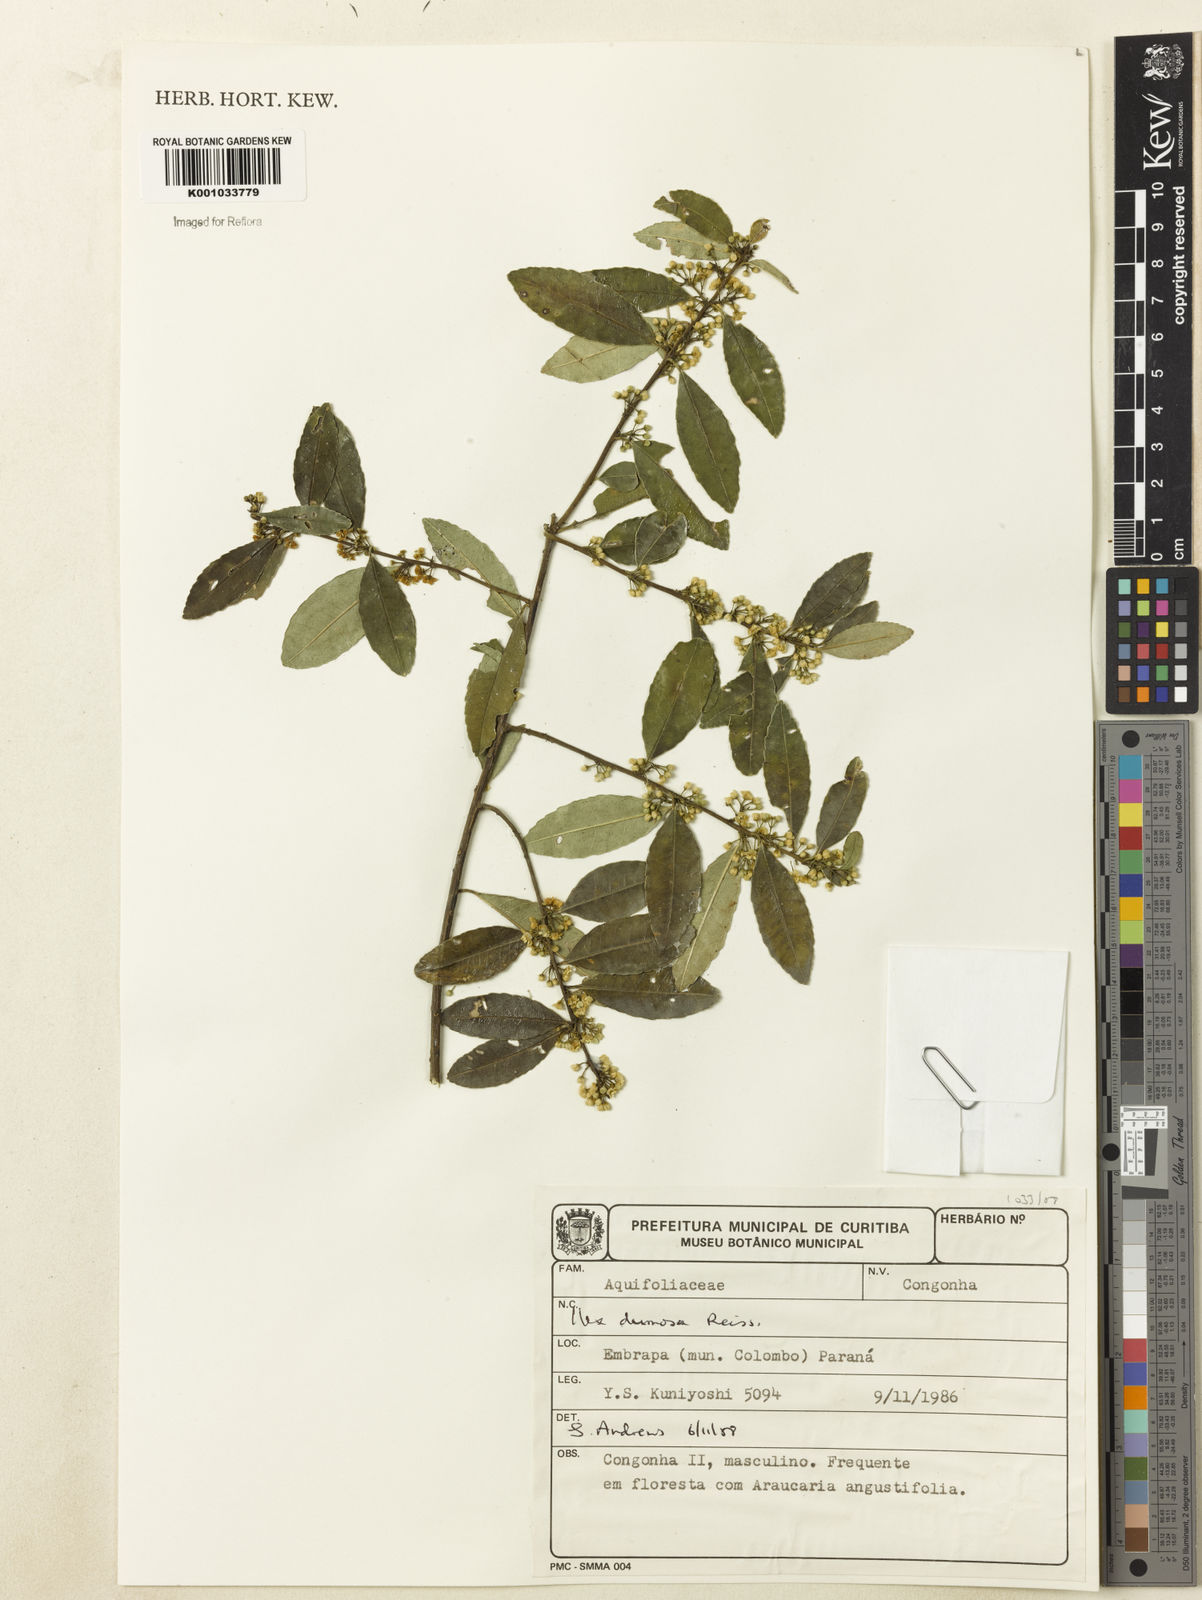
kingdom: Plantae
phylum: Tracheophyta
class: Magnoliopsida
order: Aquifoliales
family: Aquifoliaceae
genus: Ilex
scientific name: Ilex dumosa
